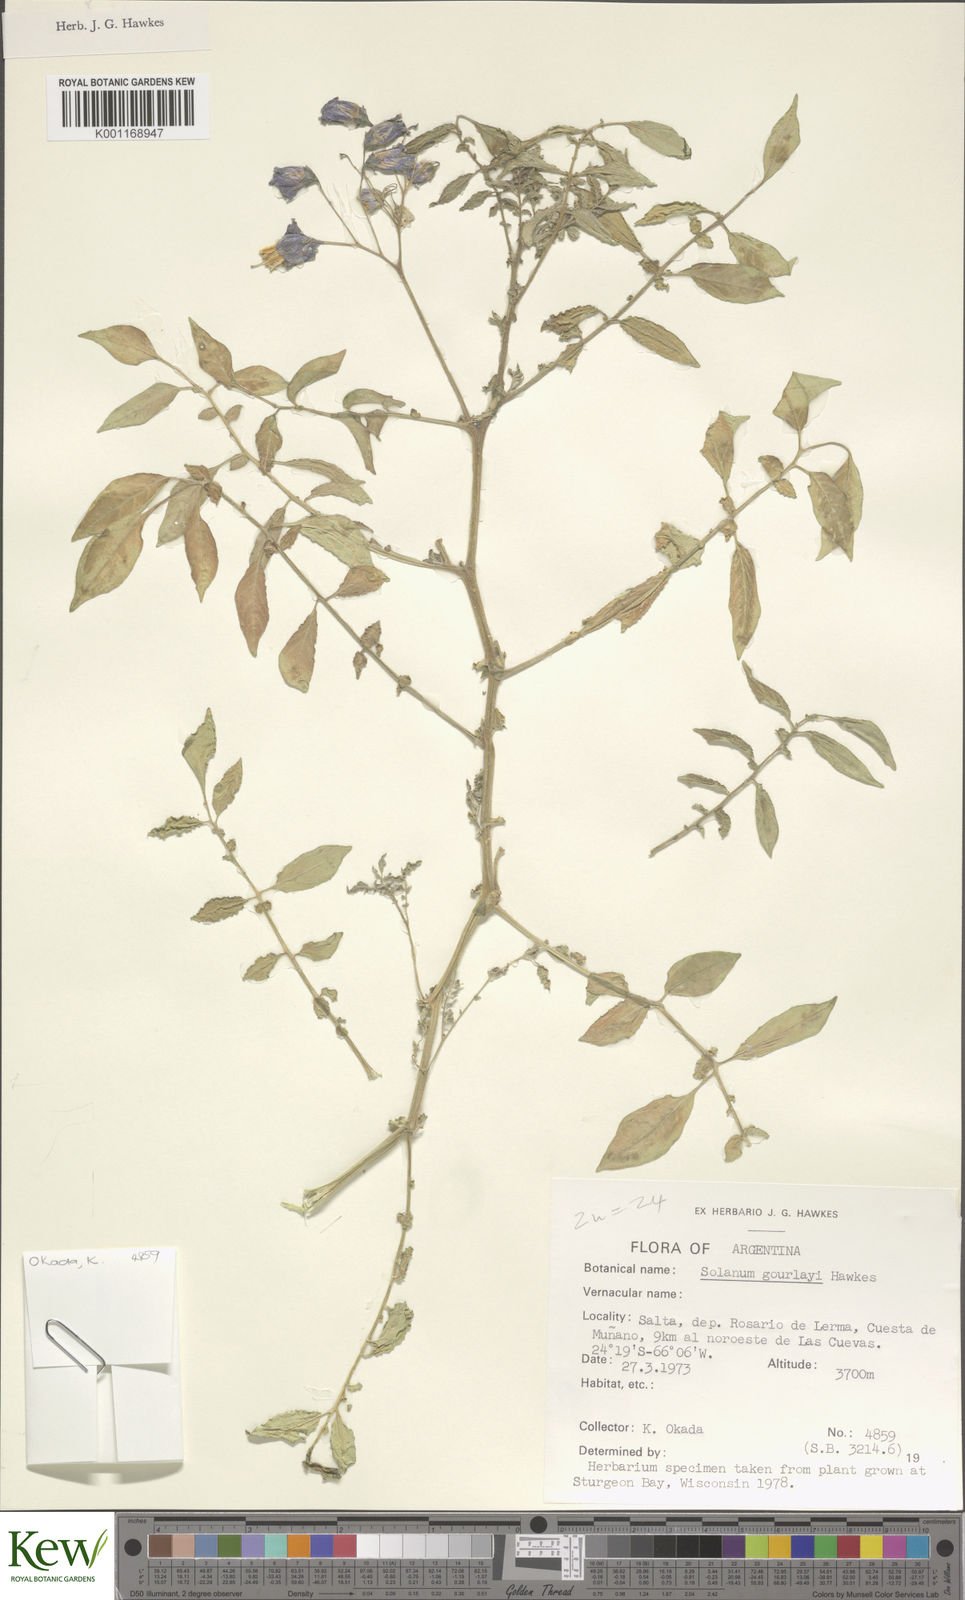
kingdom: Plantae
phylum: Tracheophyta
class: Magnoliopsida
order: Solanales
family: Solanaceae
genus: Solanum
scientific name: Solanum brevicaule
